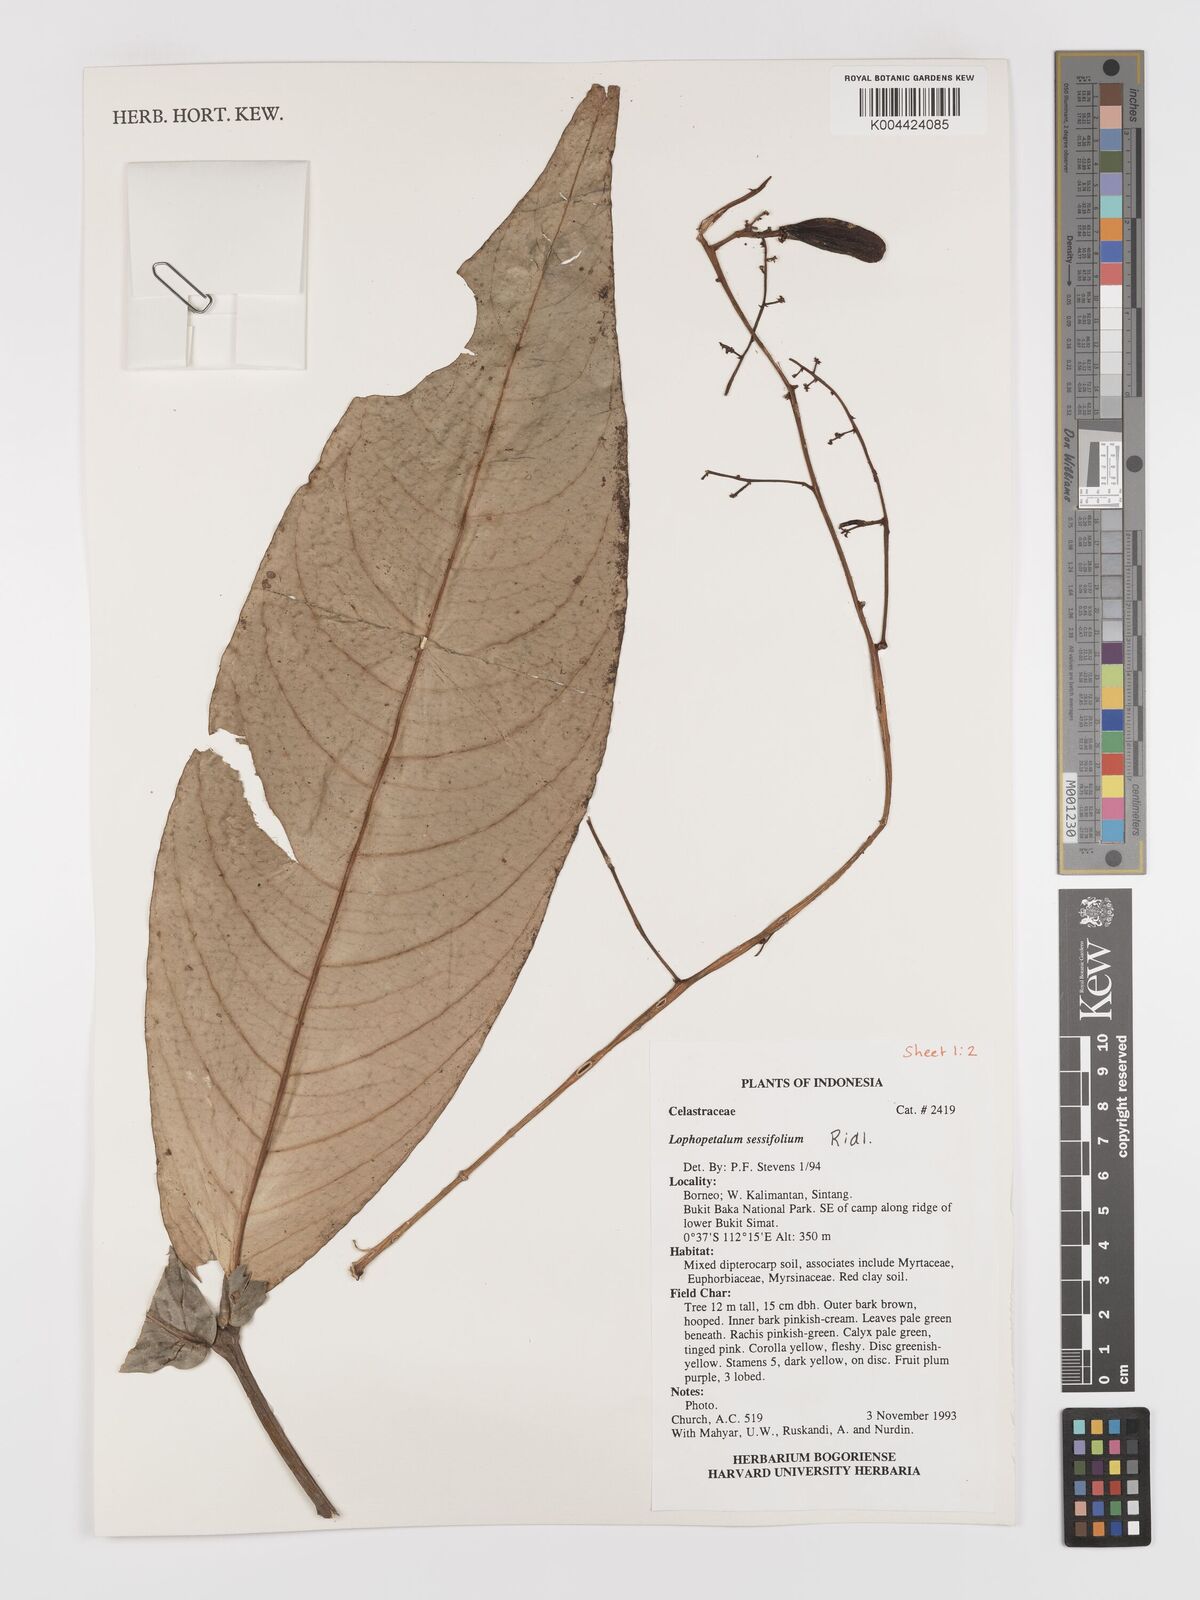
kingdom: Plantae
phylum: Tracheophyta
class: Magnoliopsida
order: Celastrales
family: Celastraceae
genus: Lophopetalum
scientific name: Lophopetalum sessilifolium
